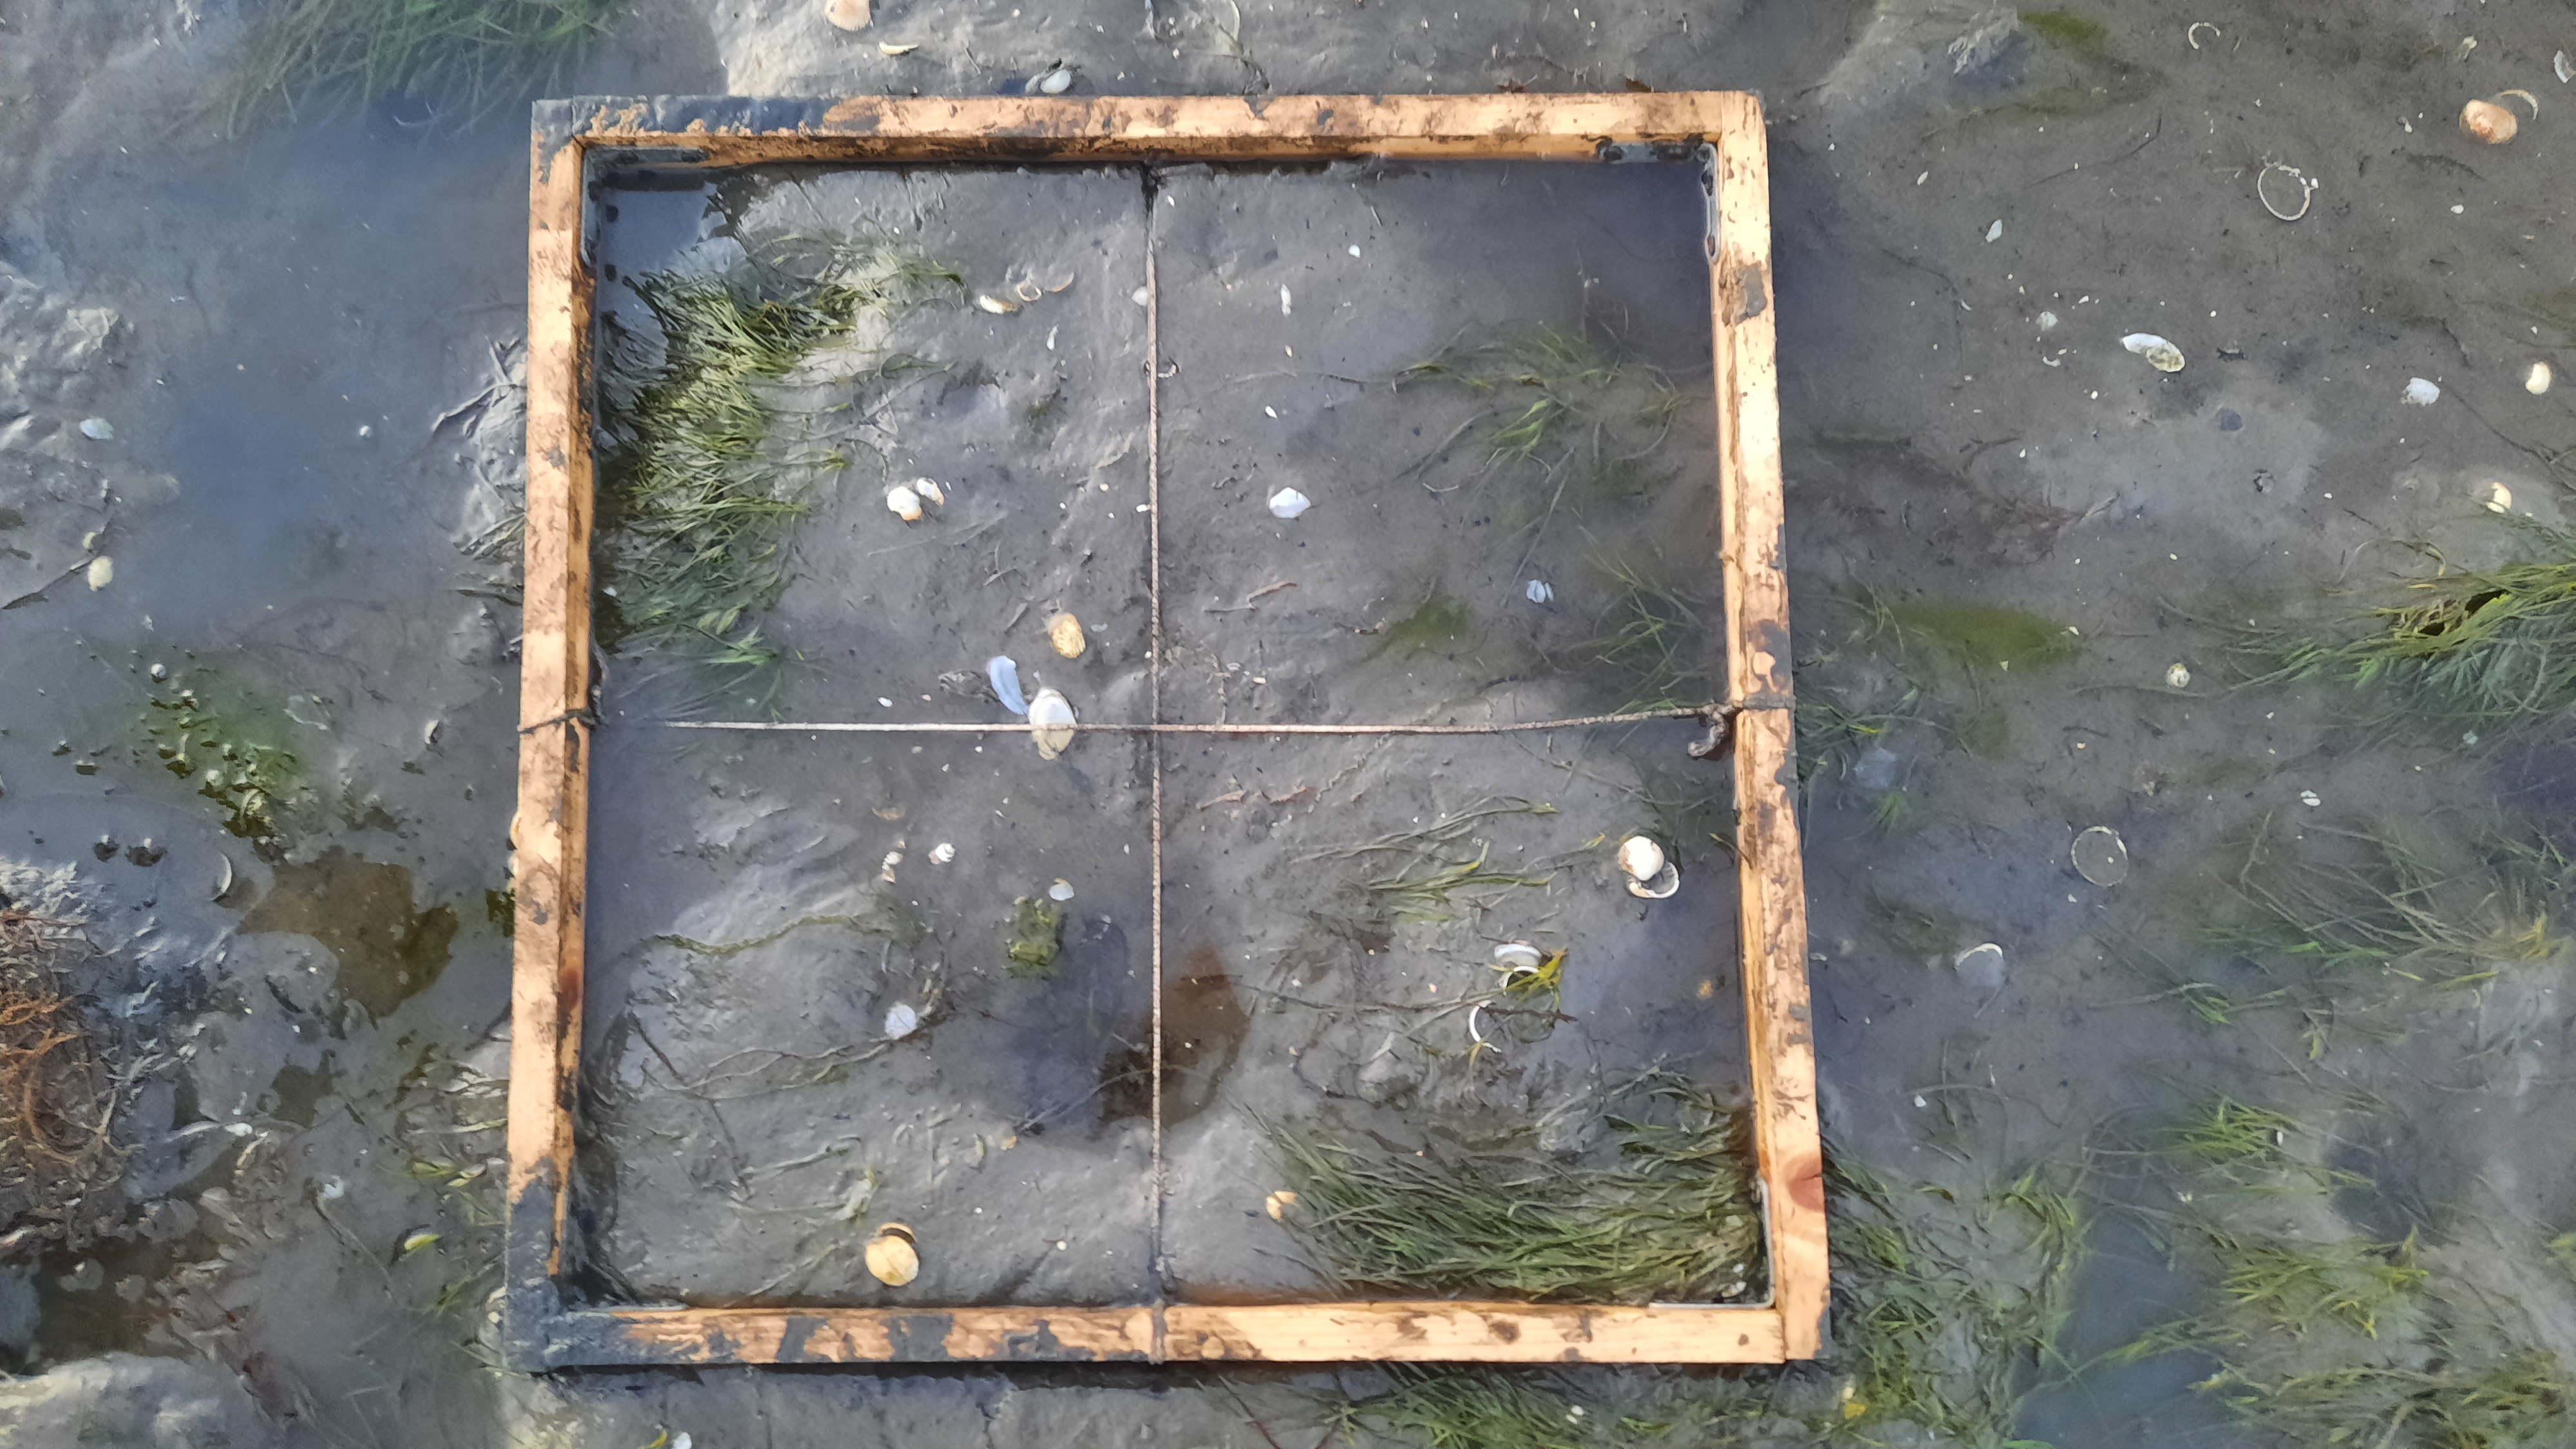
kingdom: Plantae
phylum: Tracheophyta
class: Liliopsida
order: Alismatales
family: Zosteraceae
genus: Zostera
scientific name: Zostera noltii
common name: Dwarf eelgrass
